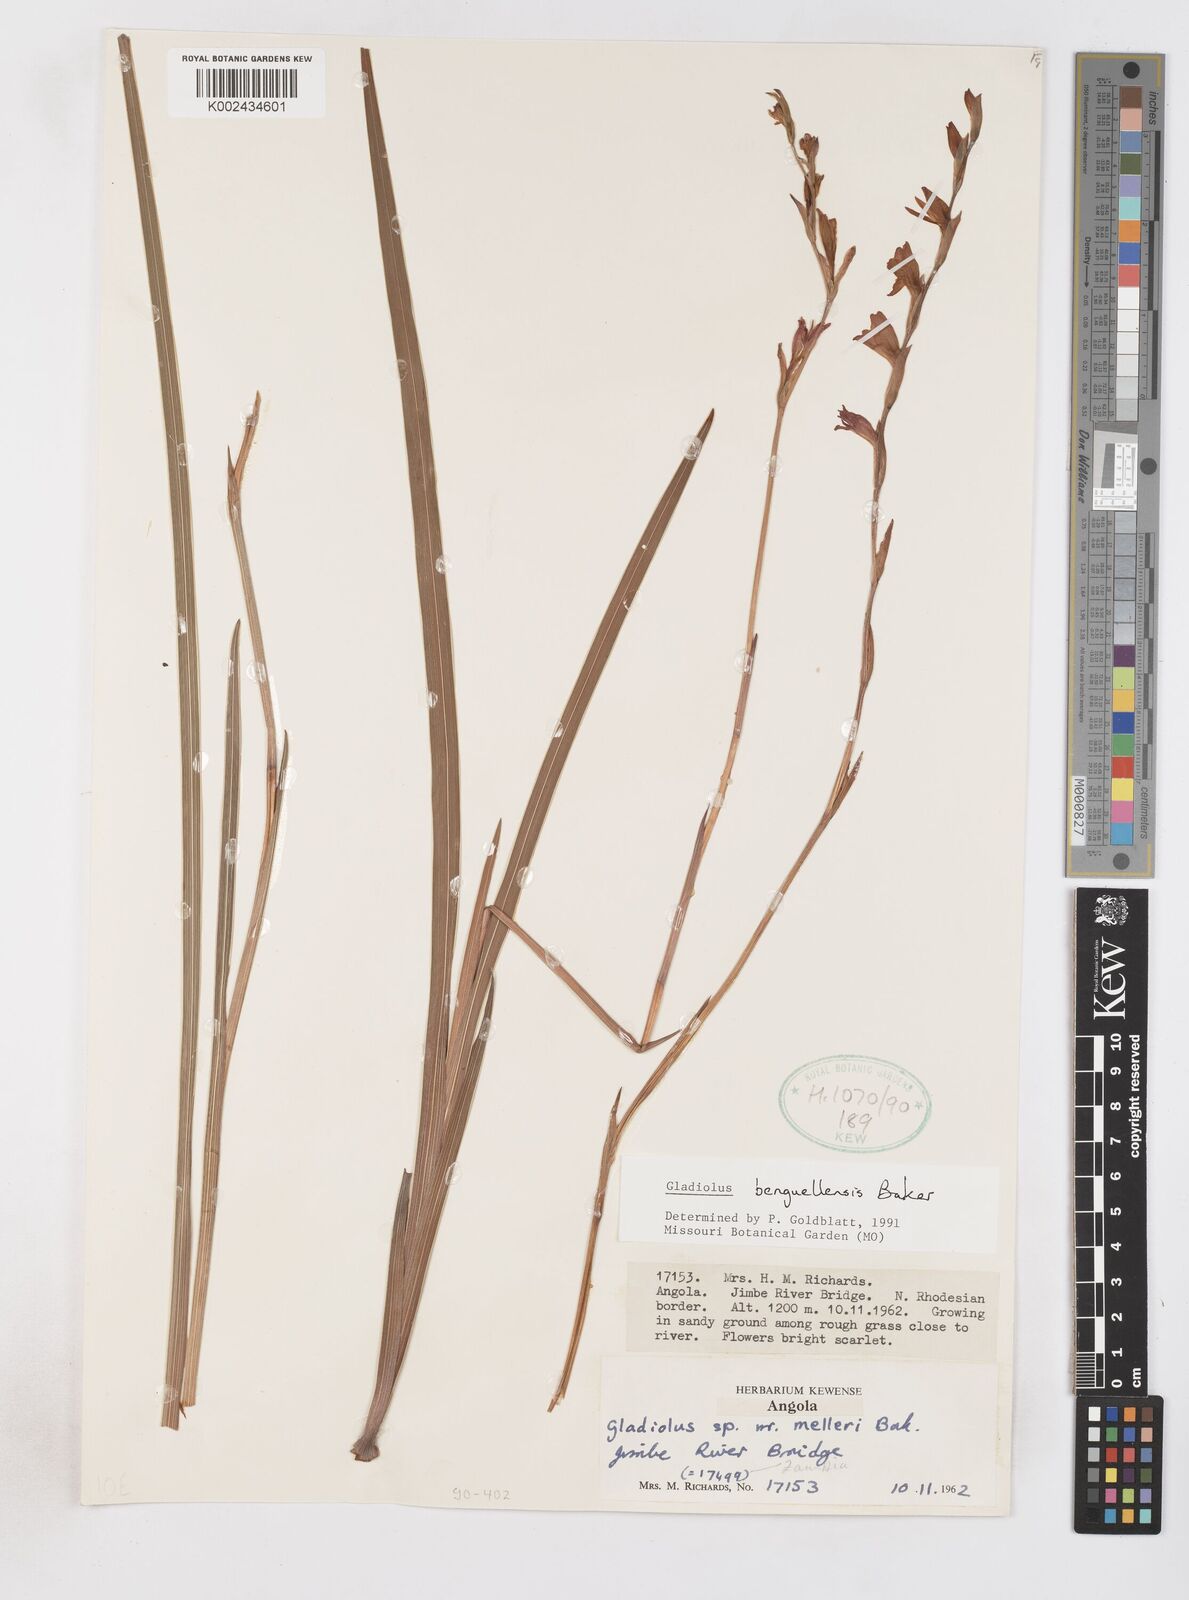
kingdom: Plantae
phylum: Tracheophyta
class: Liliopsida
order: Asparagales
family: Iridaceae
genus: Gladiolus
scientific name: Gladiolus benguellensis
